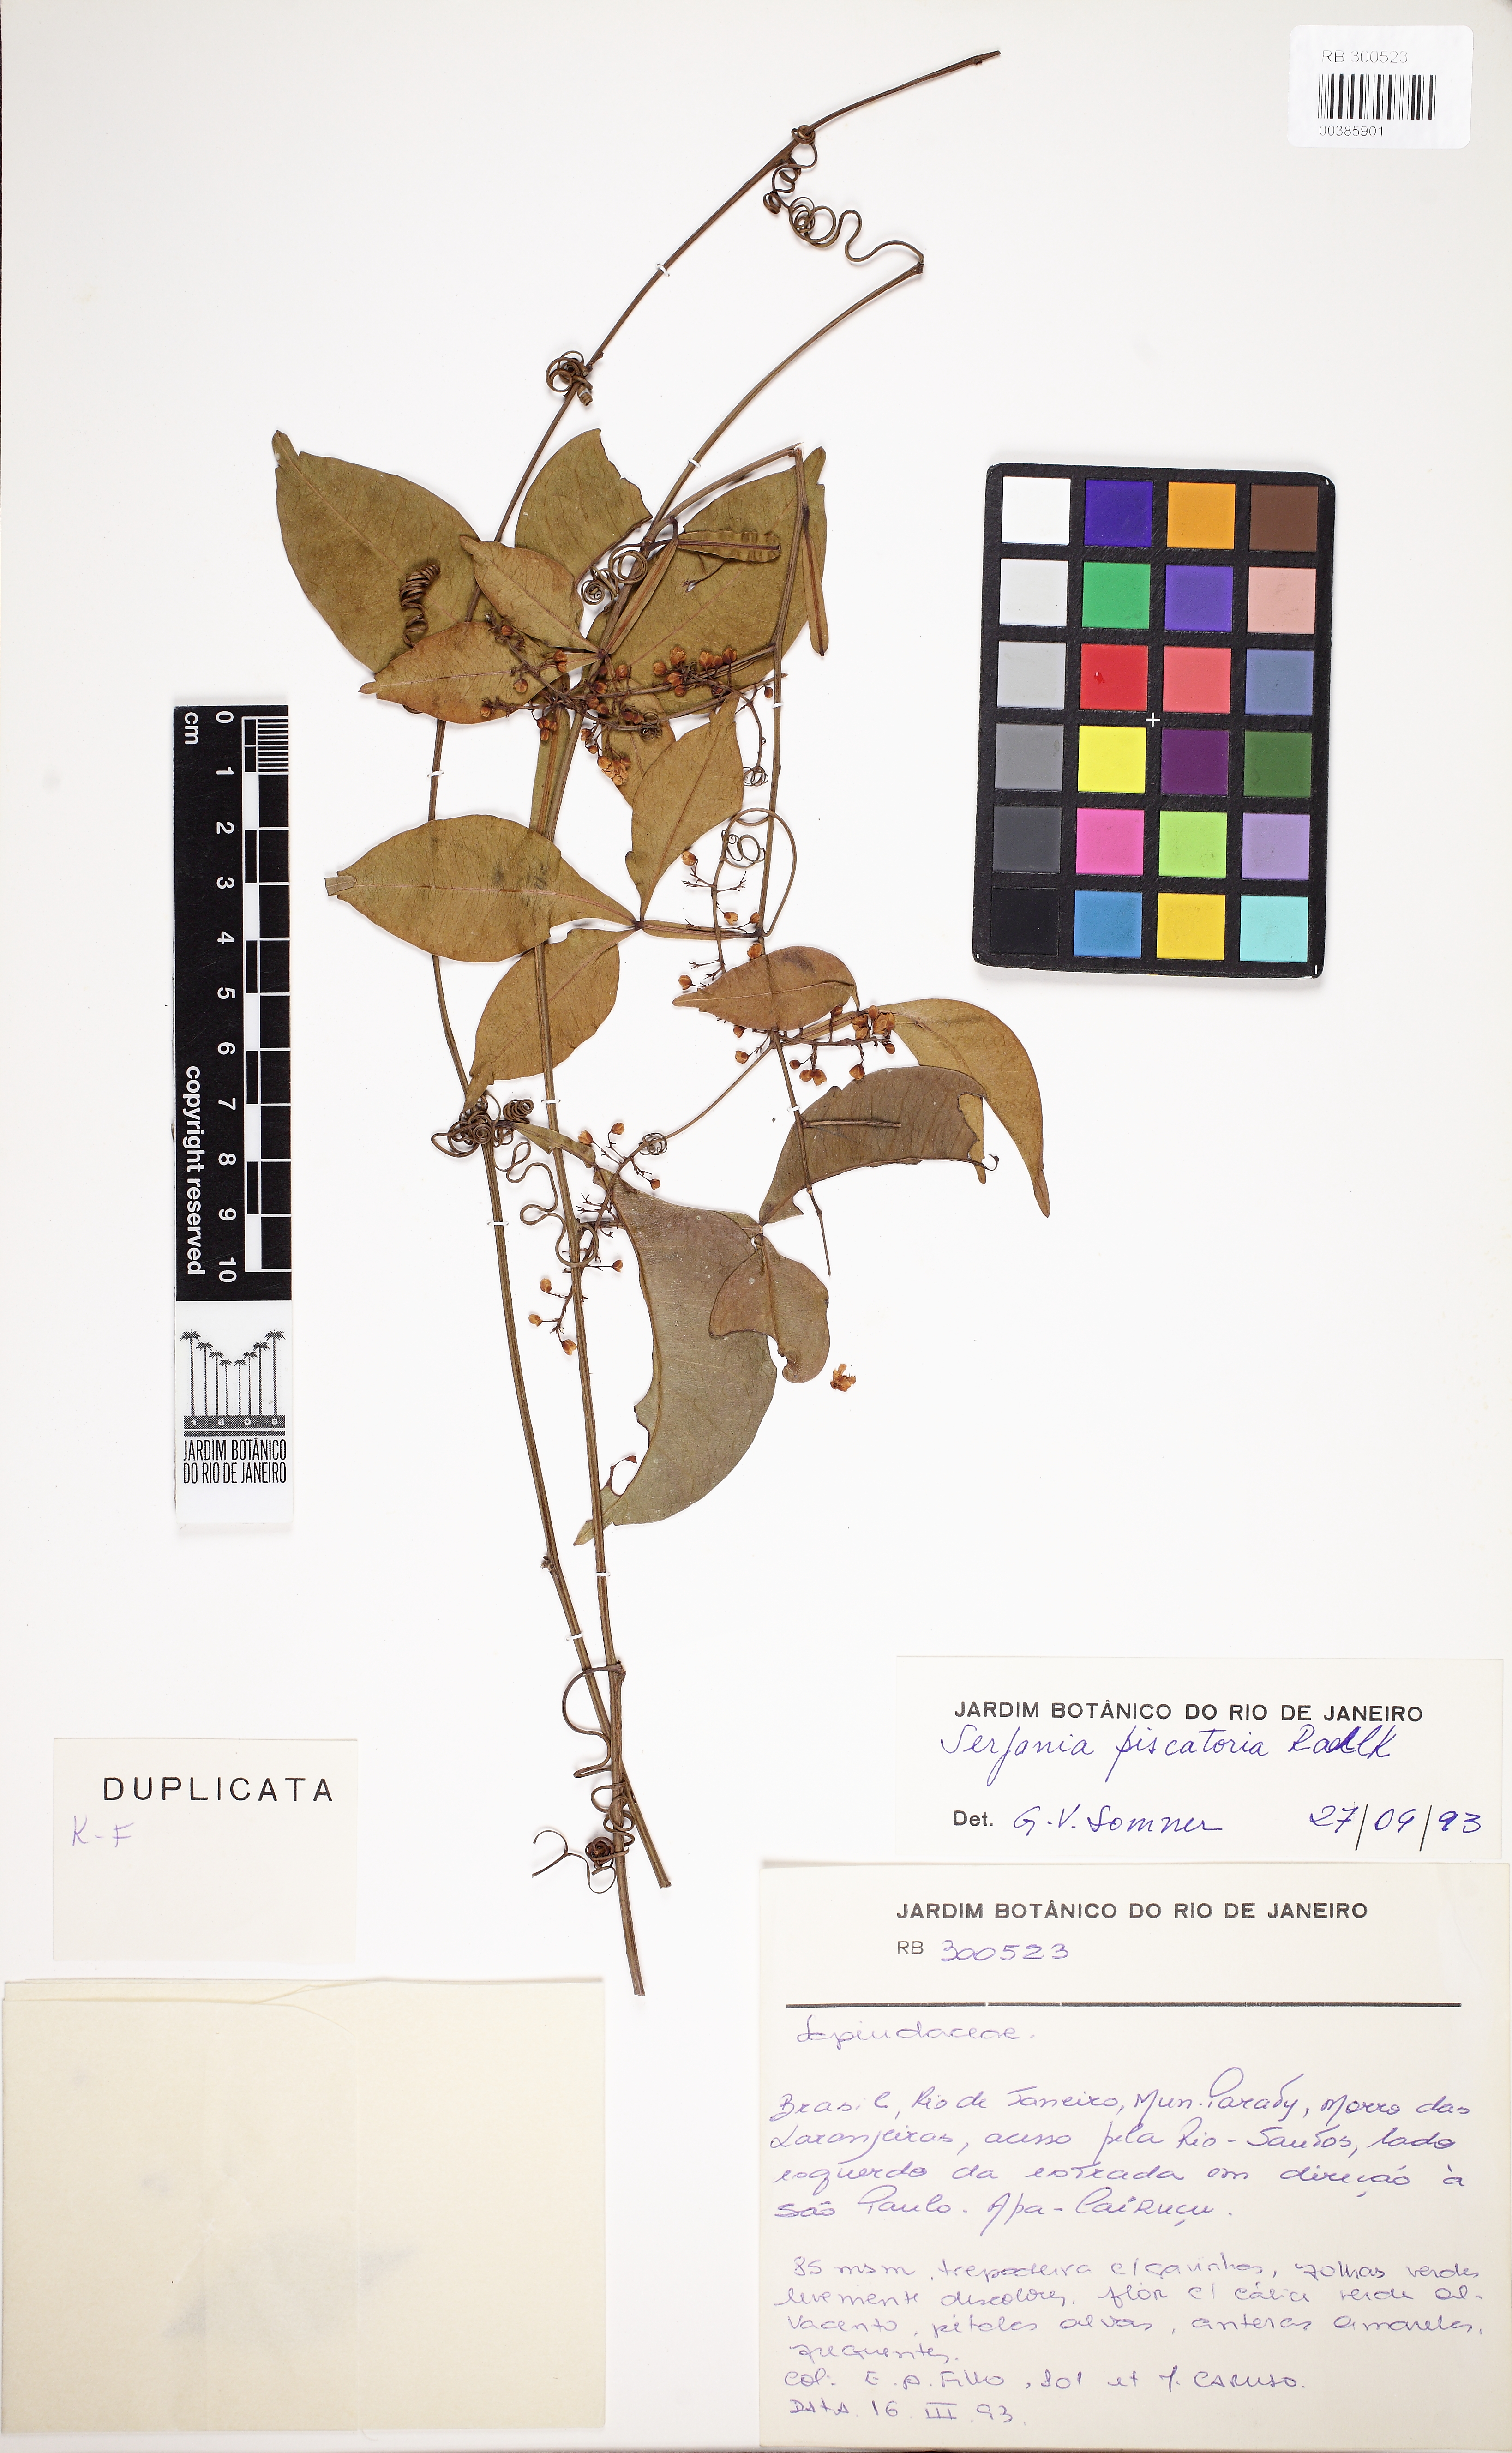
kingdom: Plantae
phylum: Tracheophyta
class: Magnoliopsida
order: Sapindales
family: Sapindaceae
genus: Serjania
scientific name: Serjania piscatoria
